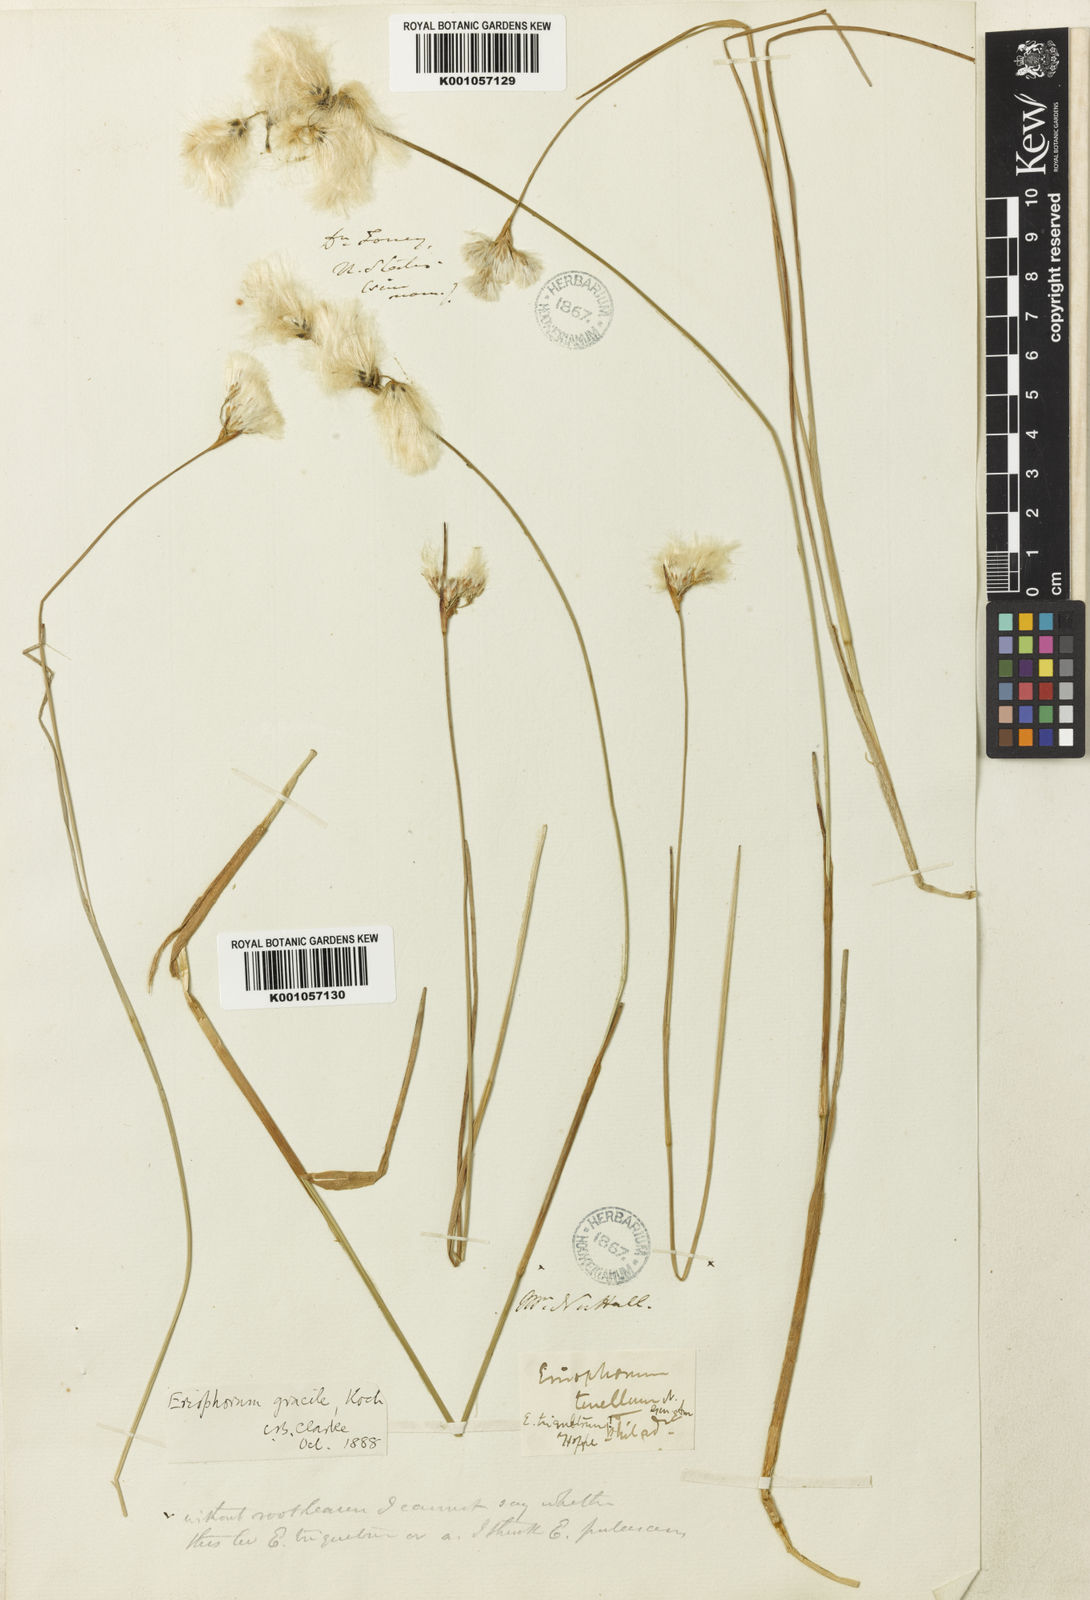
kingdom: Plantae
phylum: Tracheophyta
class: Liliopsida
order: Poales
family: Cyperaceae
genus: Eriophorum
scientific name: Eriophorum tenellum
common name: Few-nerved cottongrass
